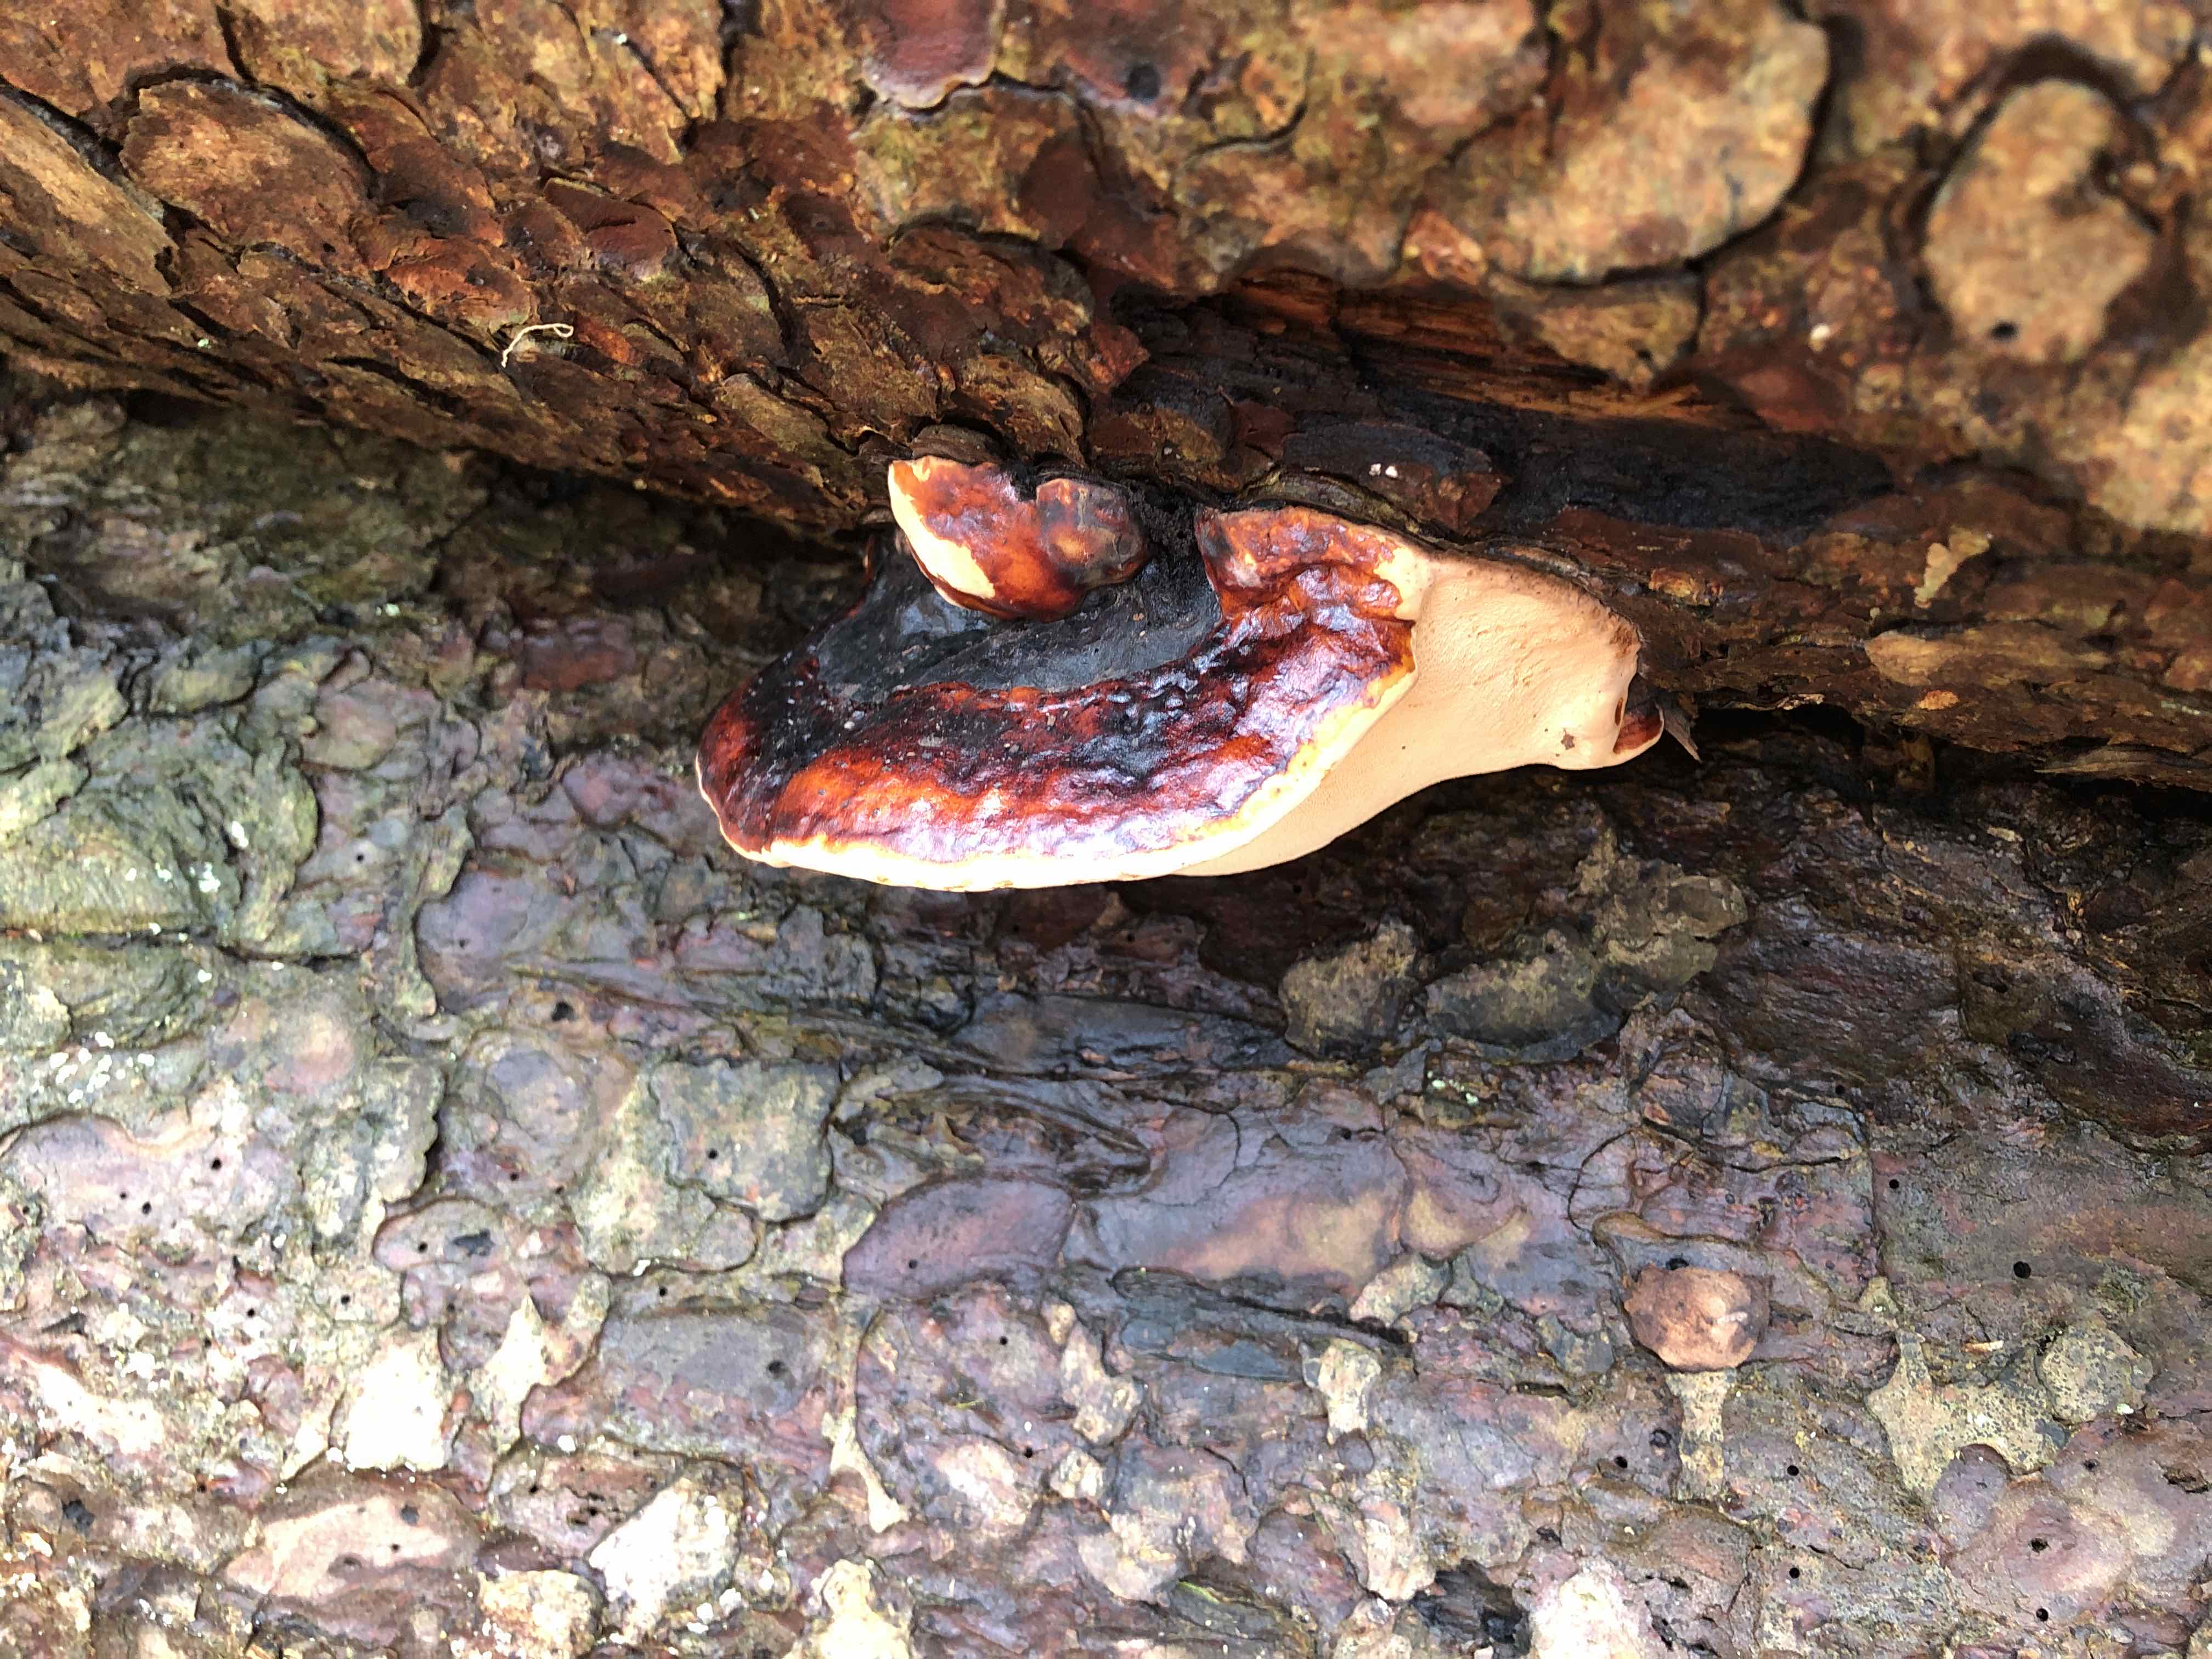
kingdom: Fungi
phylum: Basidiomycota
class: Agaricomycetes
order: Polyporales
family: Fomitopsidaceae
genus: Fomitopsis
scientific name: Fomitopsis pinicola
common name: randbæltet hovporesvamp
